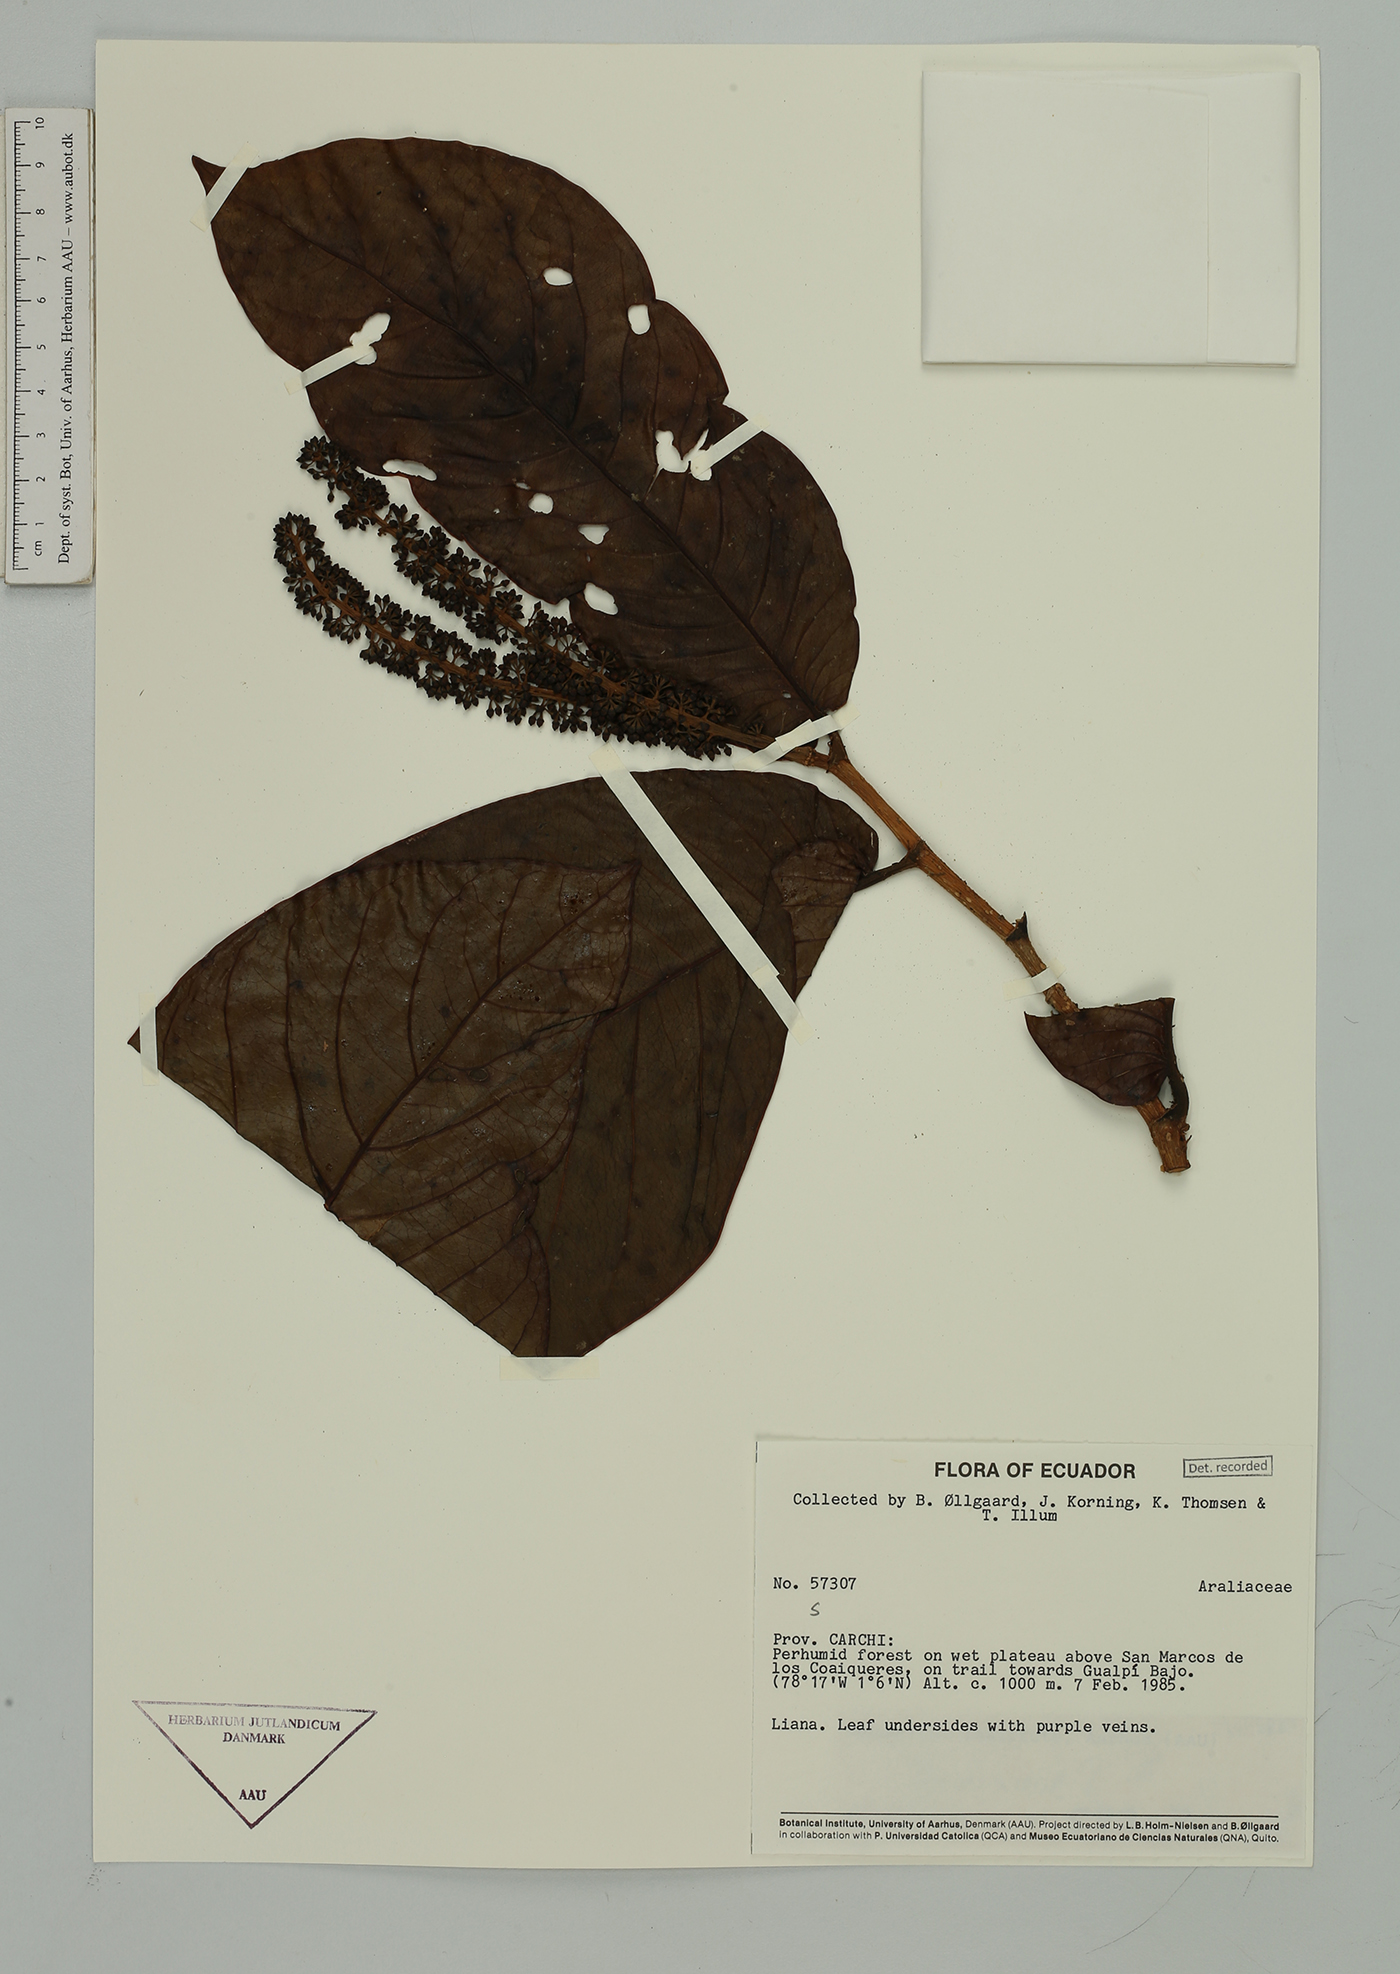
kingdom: Plantae
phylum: Tracheophyta
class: Magnoliopsida
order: Apiales
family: Araliaceae
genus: Sciodaphyllum
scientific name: Sciodaphyllum
